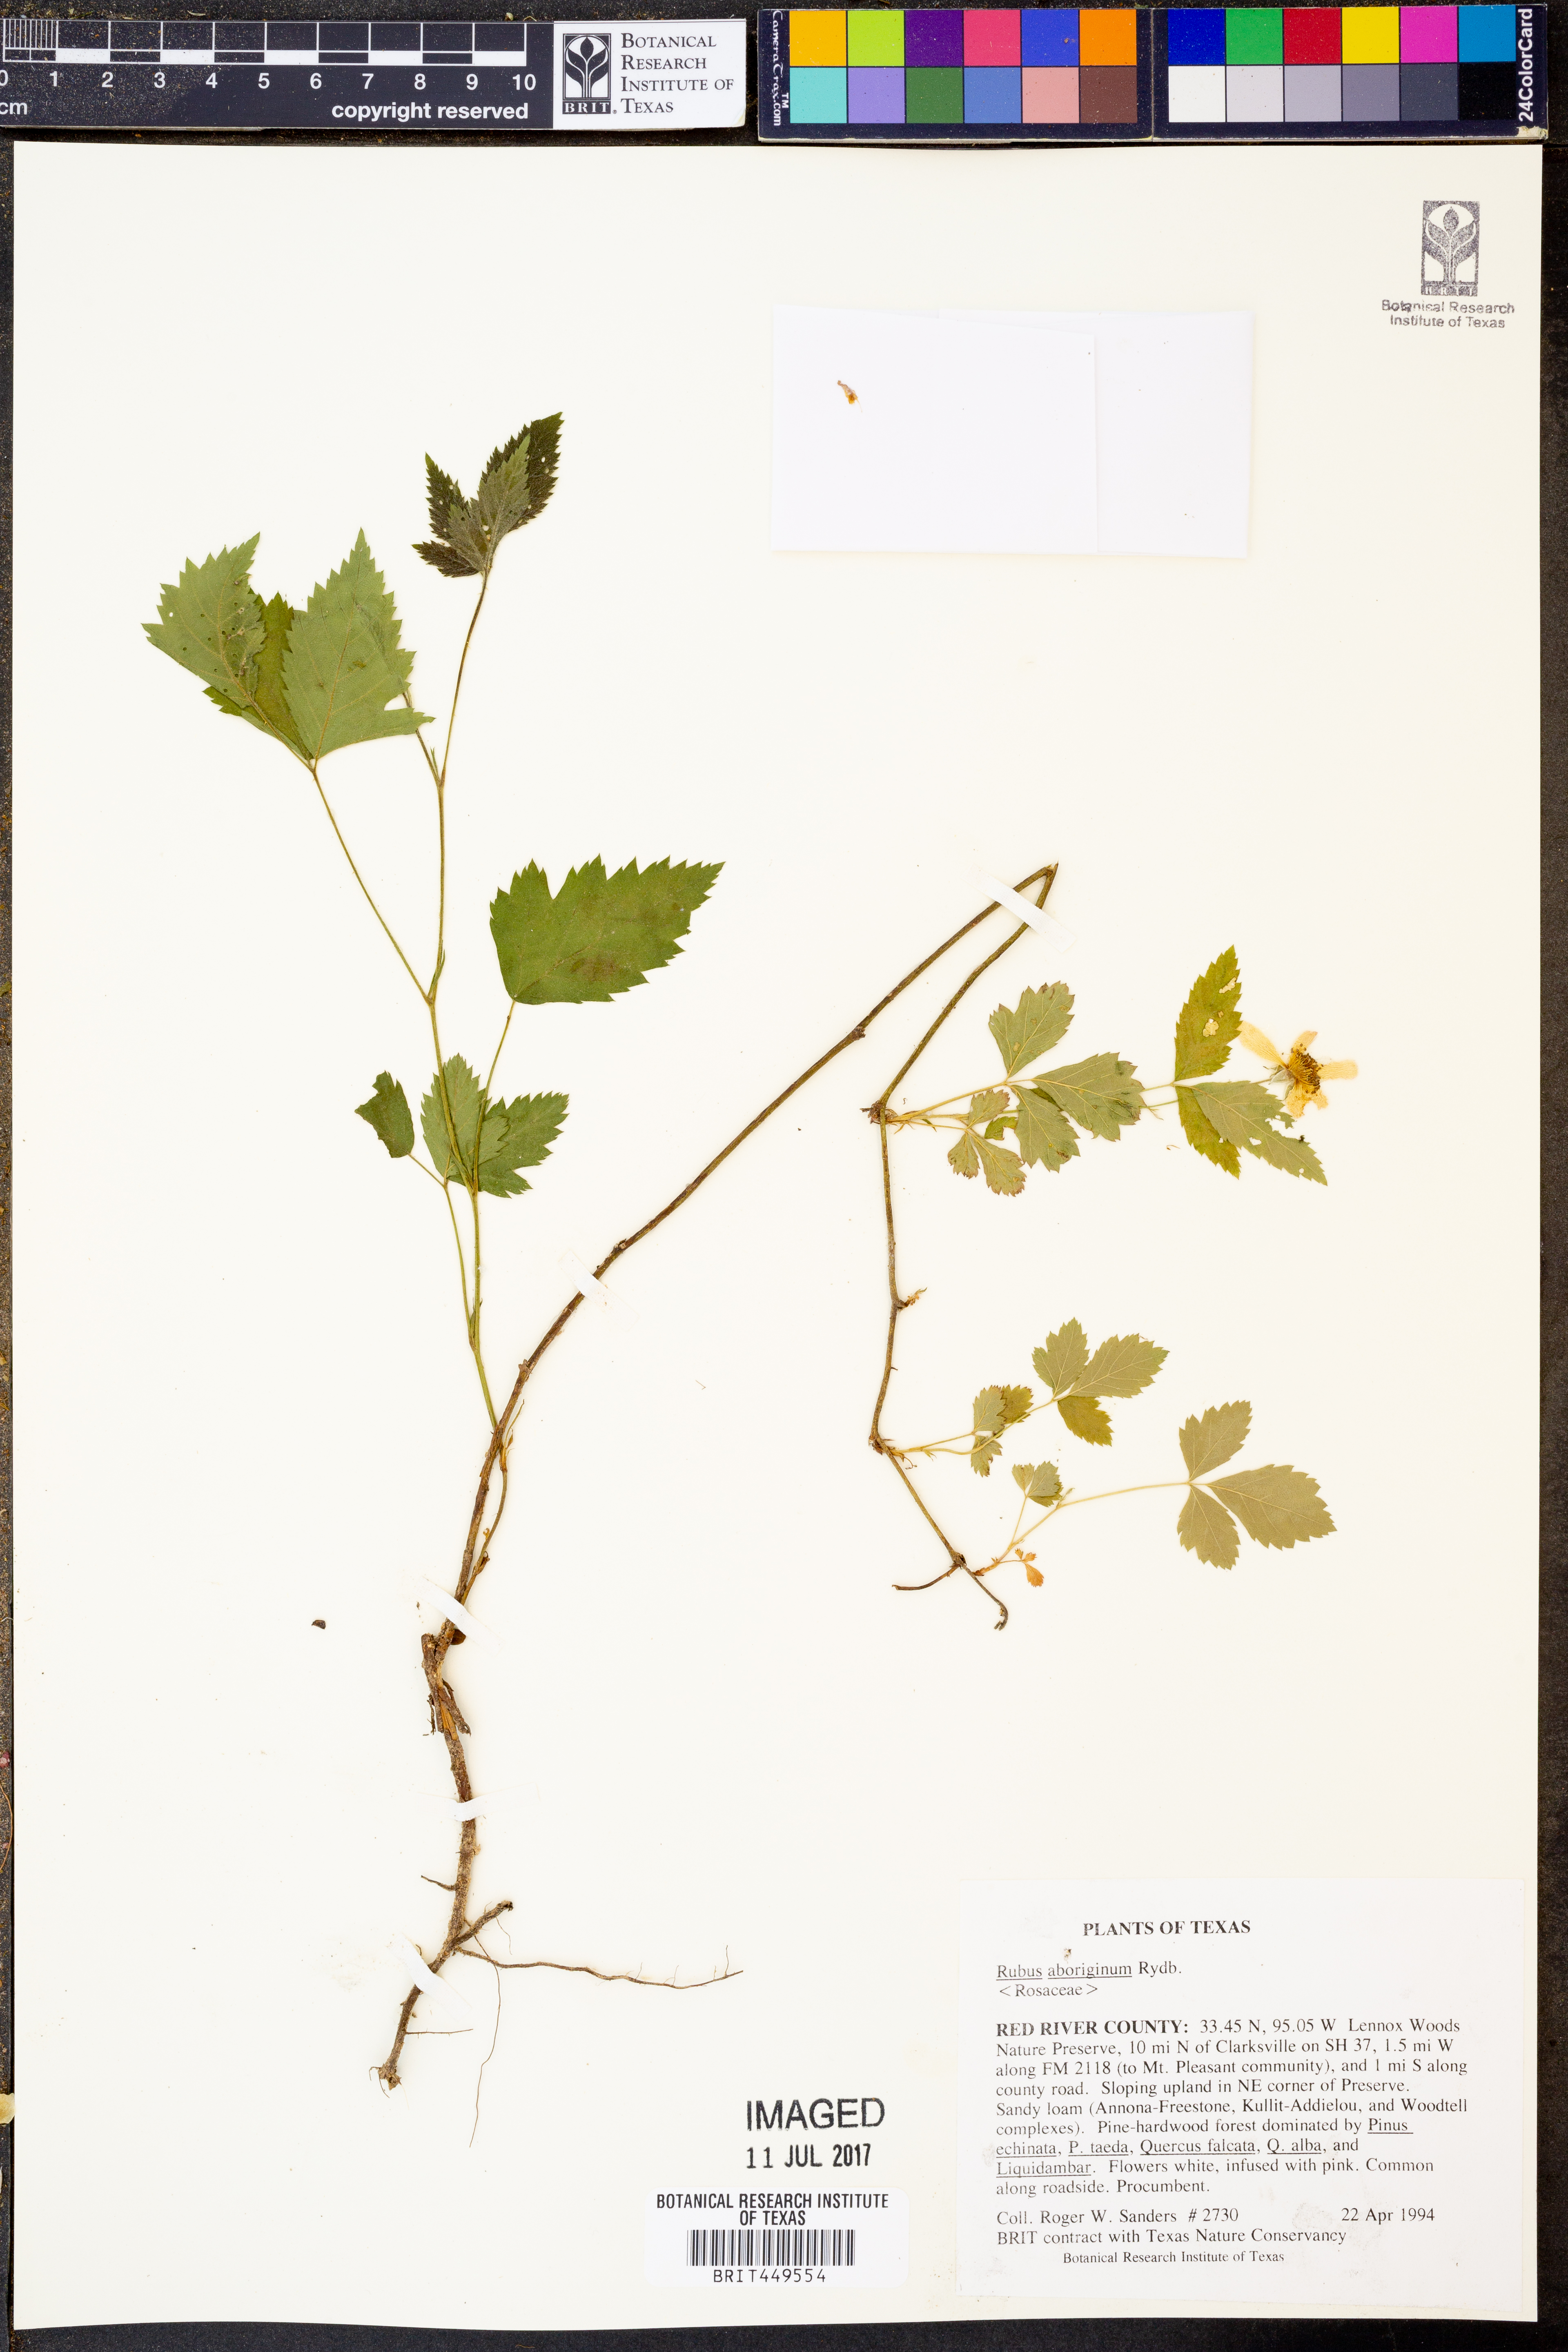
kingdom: Plantae
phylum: Tracheophyta
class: Magnoliopsida
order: Rosales
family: Rosaceae
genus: Rubus
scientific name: Rubus aboriginum
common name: Mayes dewberry
